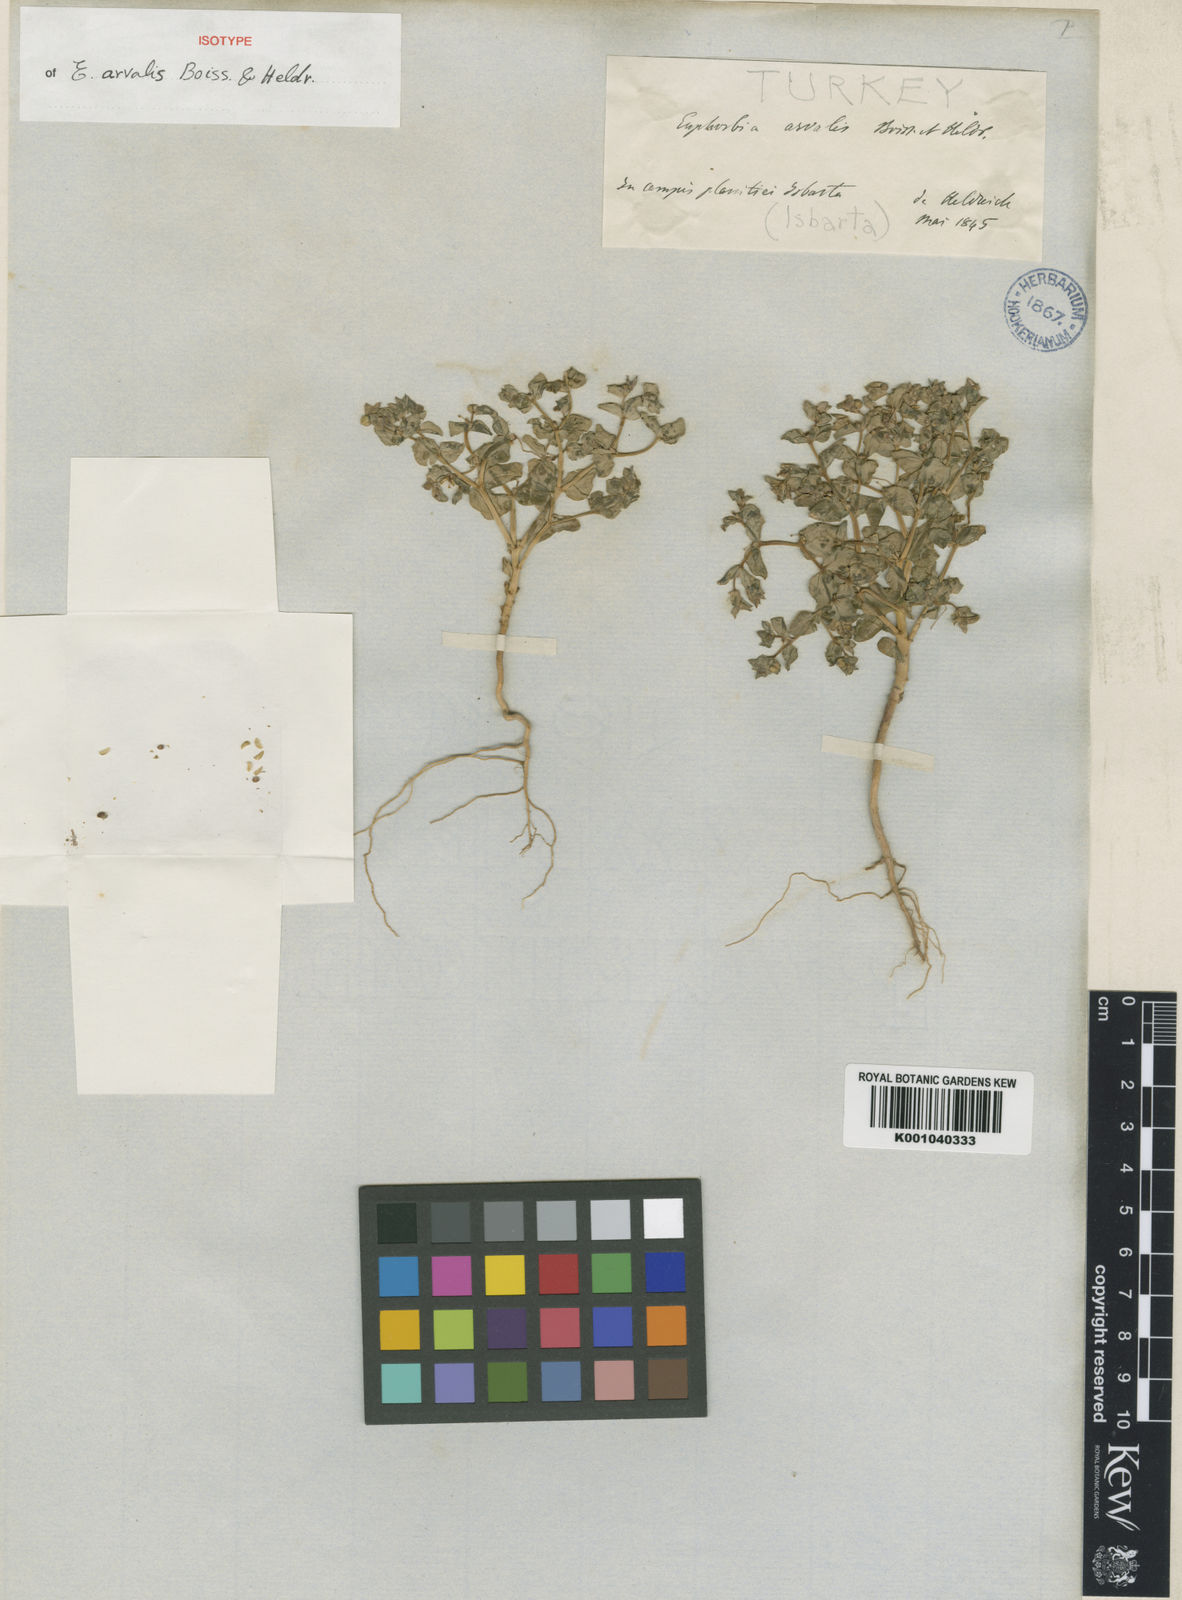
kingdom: Plantae
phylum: Tracheophyta
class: Magnoliopsida
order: Malpighiales
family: Euphorbiaceae
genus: Euphorbia
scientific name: Euphorbia arvalis
